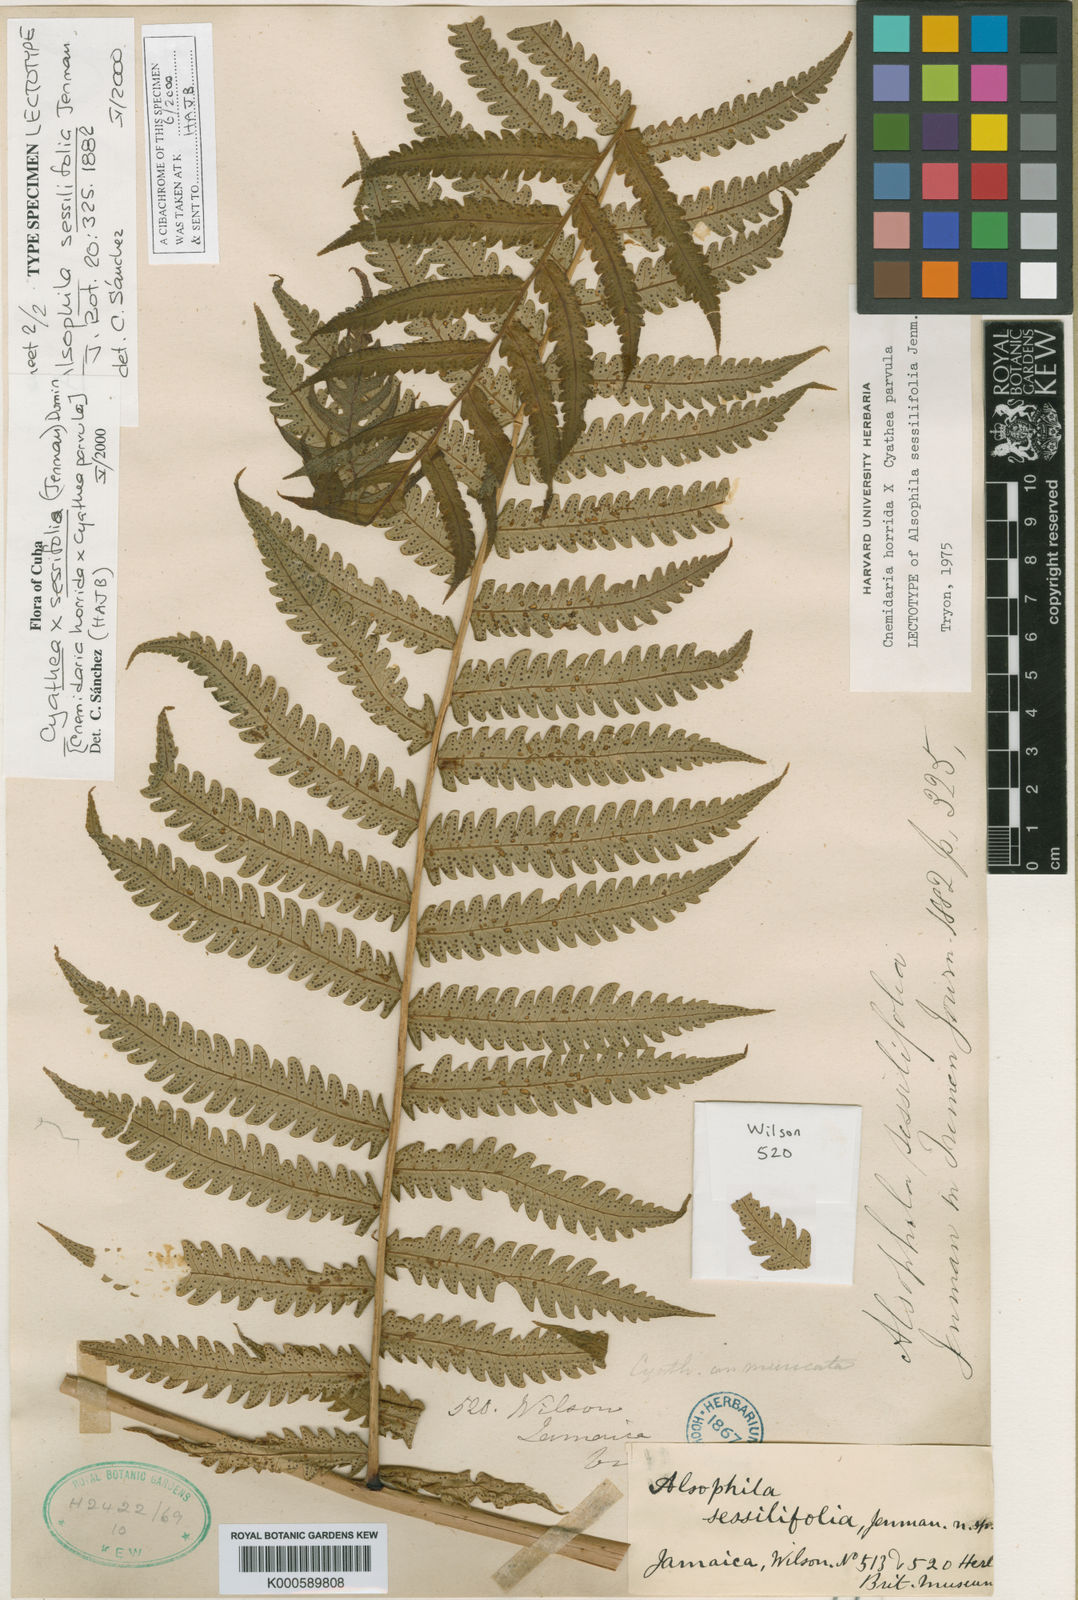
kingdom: Plantae
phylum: Tracheophyta
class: Polypodiopsida
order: Cyatheales
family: Cyatheaceae
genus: Cyathea
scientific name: Cyathea
